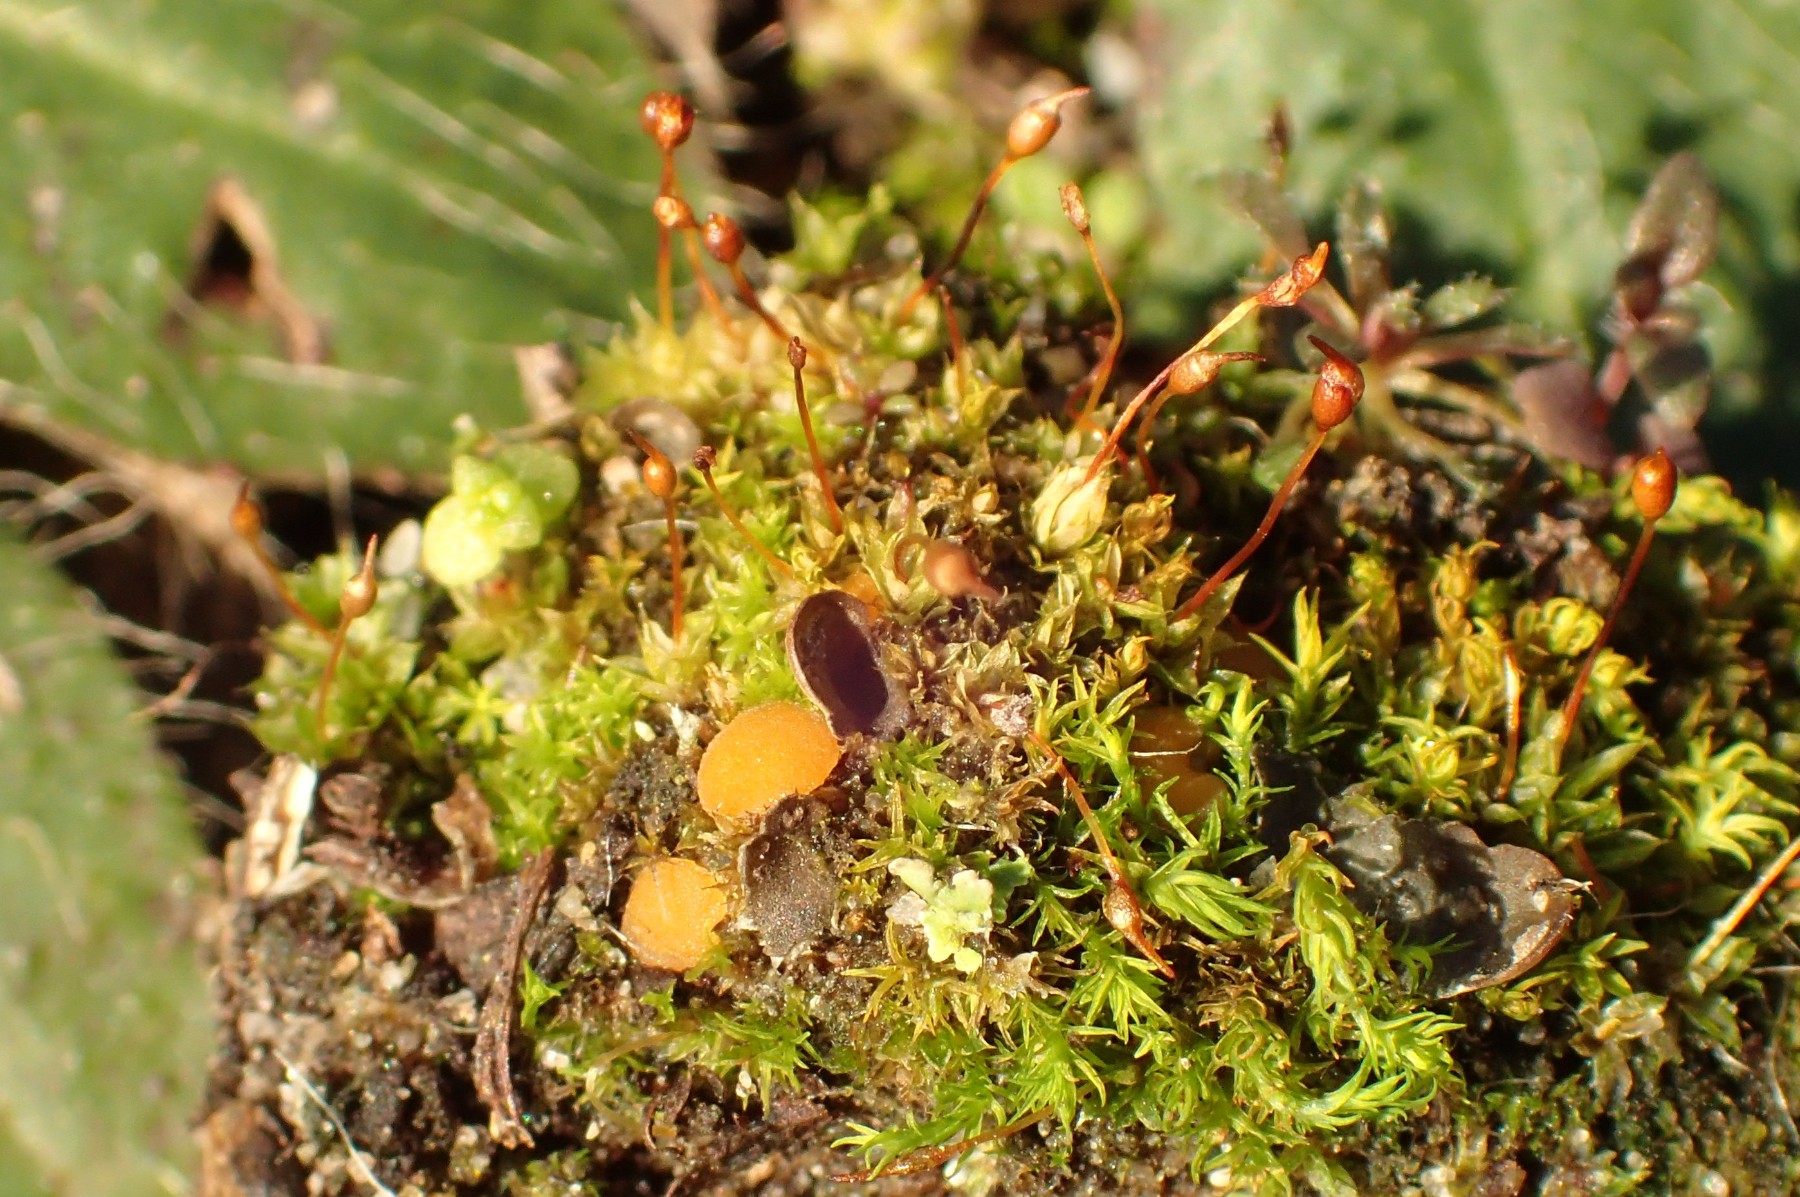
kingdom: Fungi
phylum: Ascomycota
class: Pezizomycetes
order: Pezizales
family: Pyronemataceae
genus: Inermisia
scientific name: Inermisia gyalectoides
